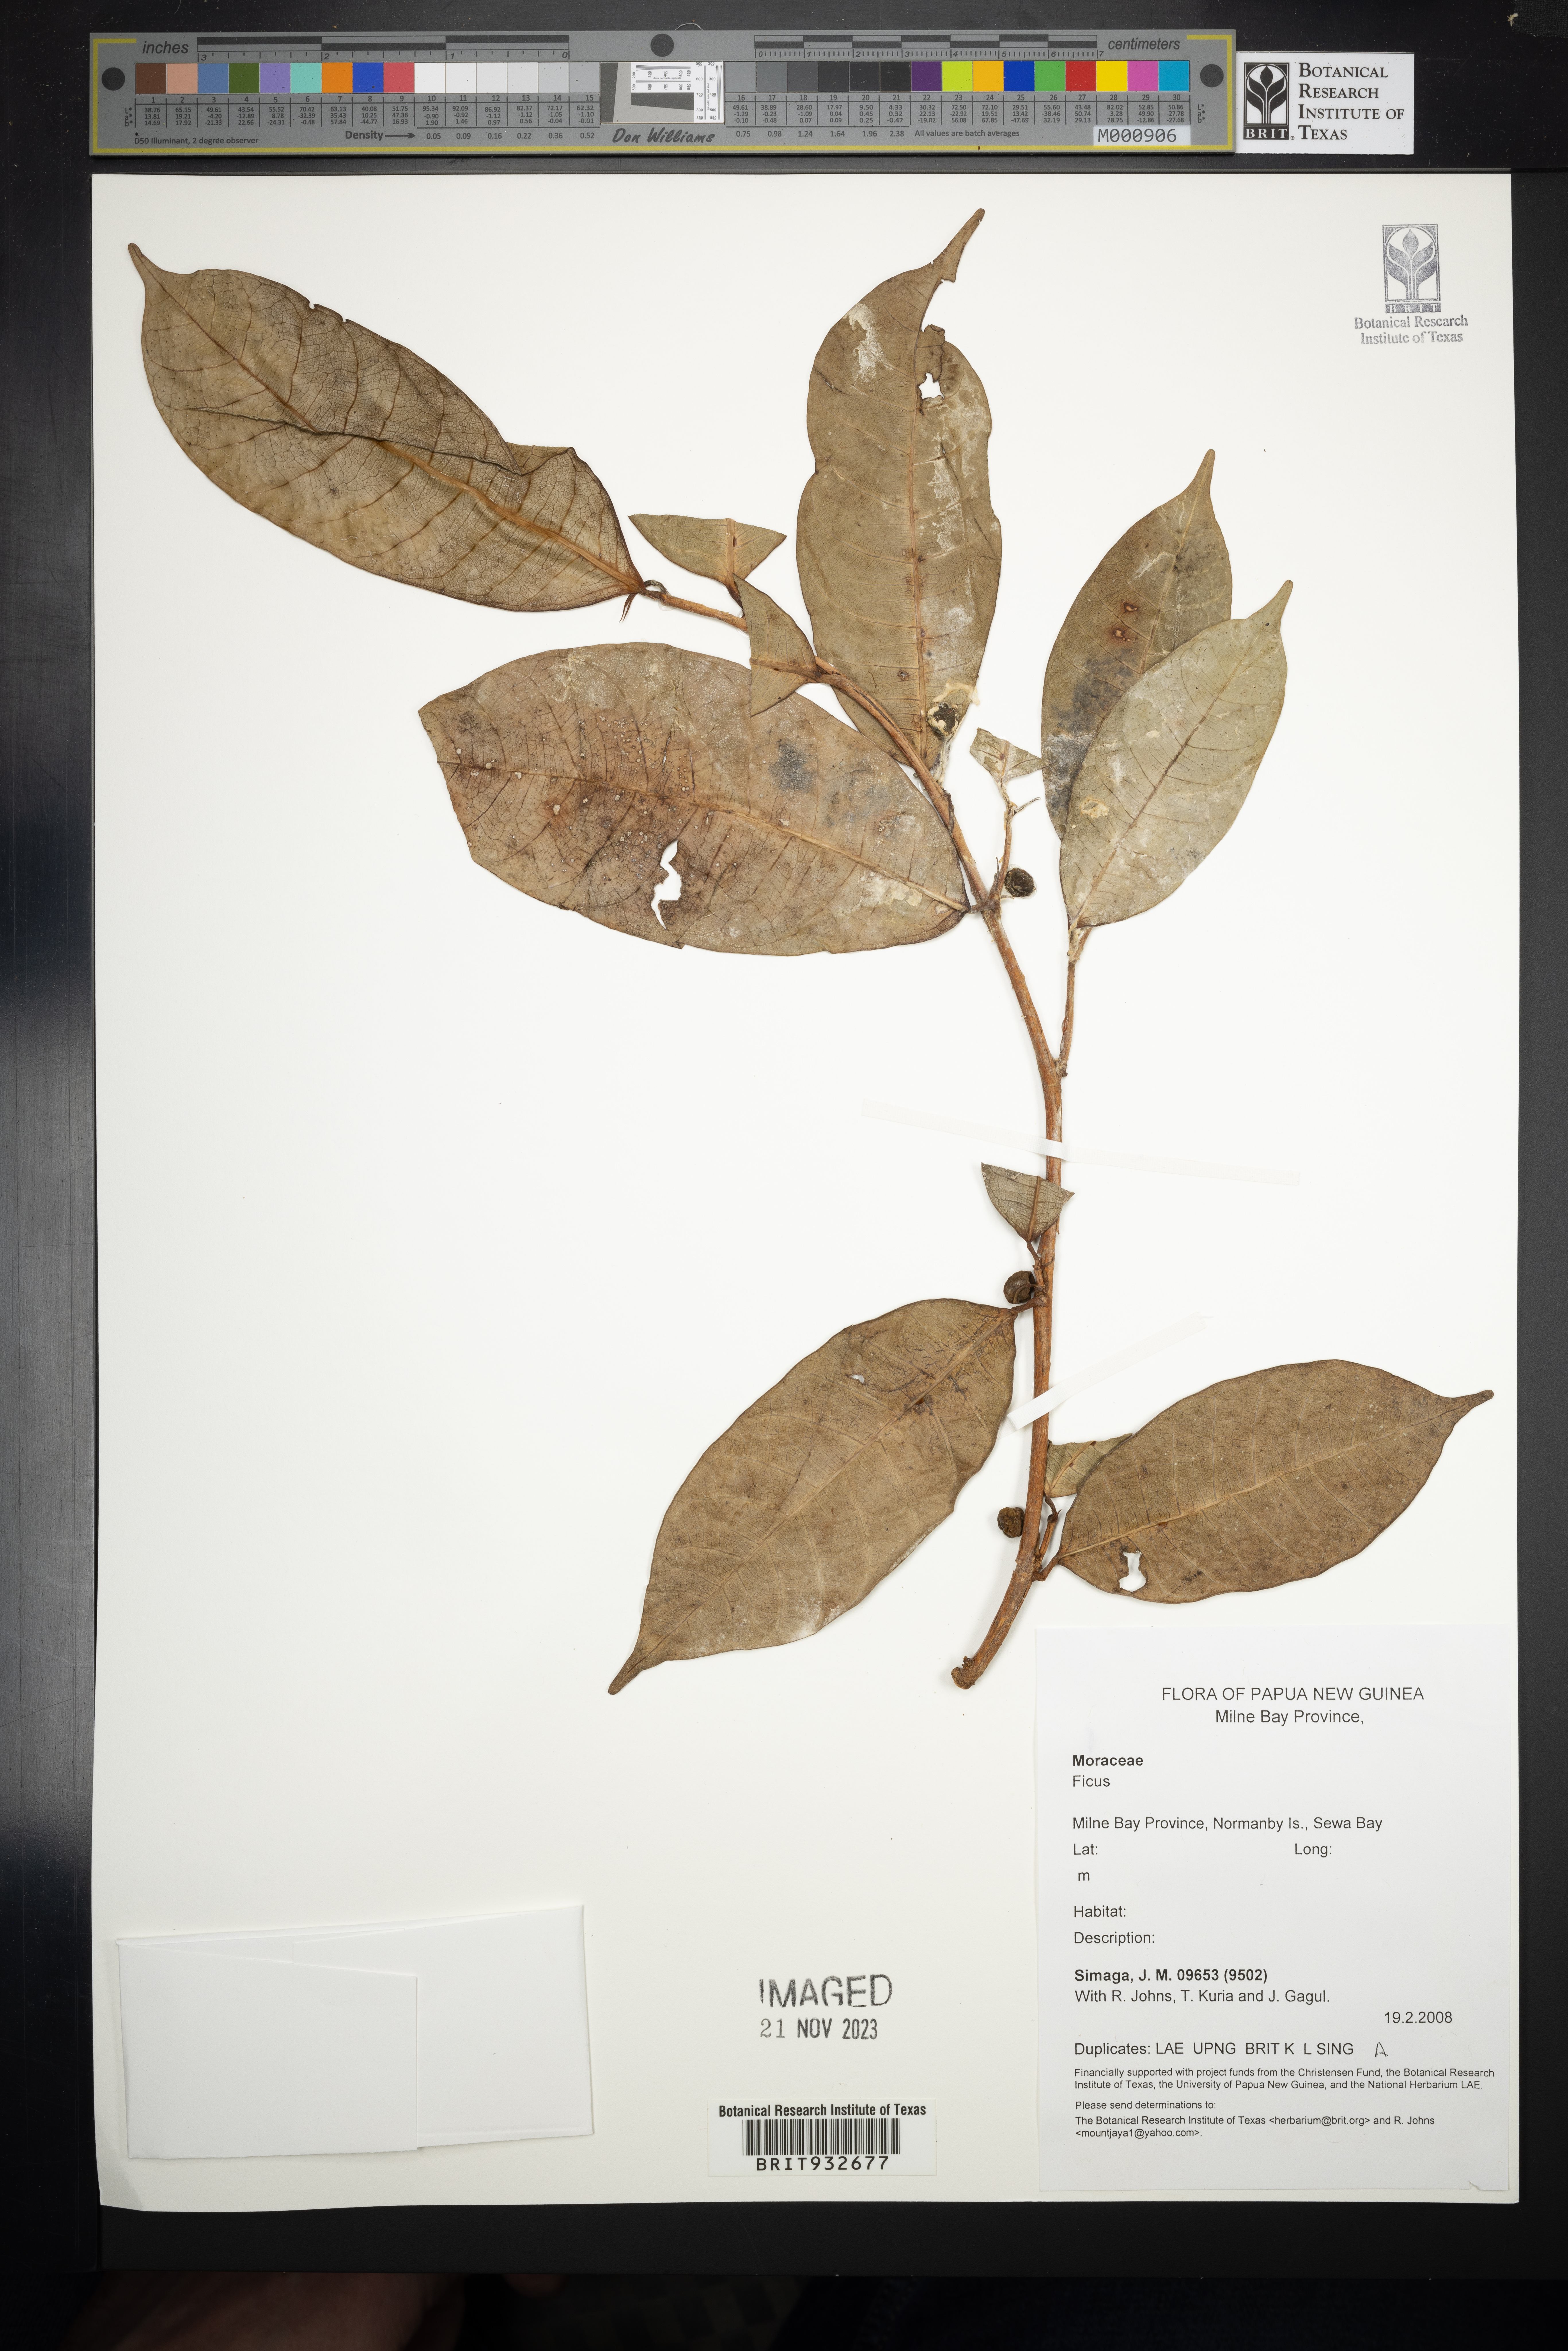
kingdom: Plantae
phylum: Tracheophyta
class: Magnoliopsida
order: Rosales
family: Moraceae
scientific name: Moraceae
